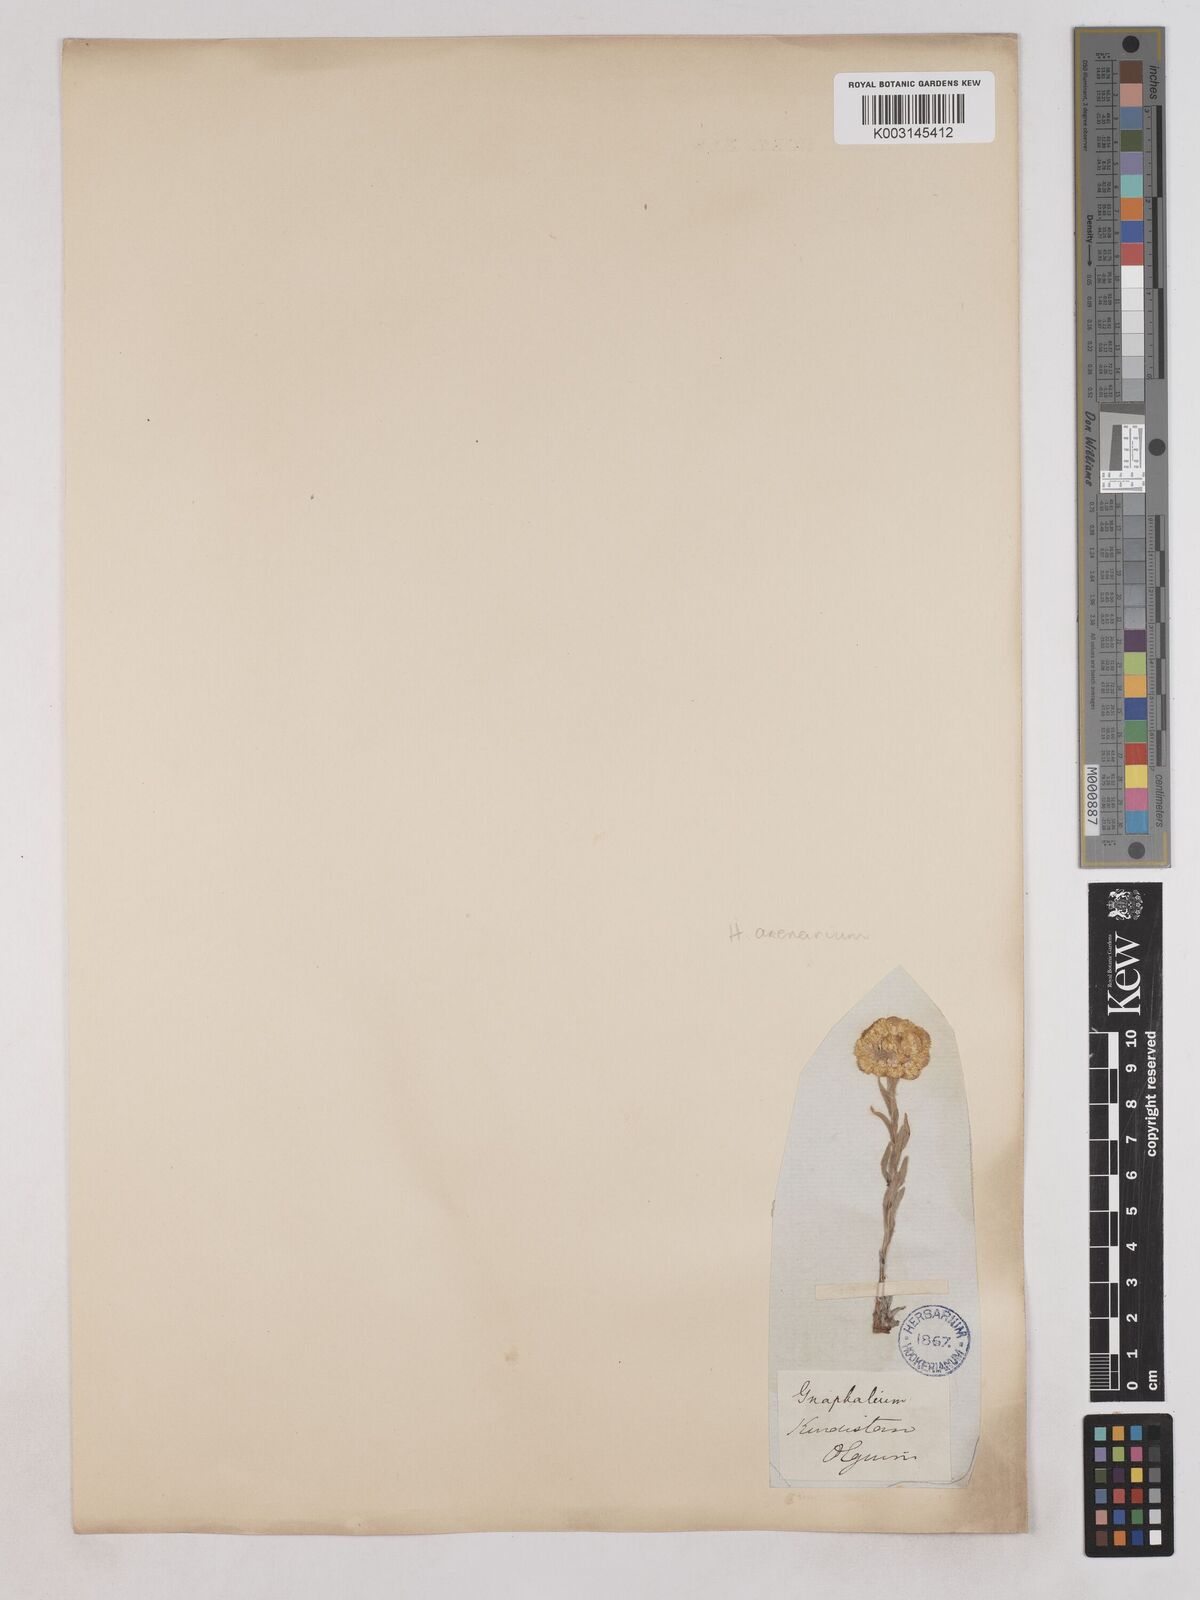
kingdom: Plantae
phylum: Tracheophyta
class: Magnoliopsida
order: Asterales
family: Asteraceae
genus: Helichrysum
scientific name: Helichrysum arenarium
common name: Strawflower
